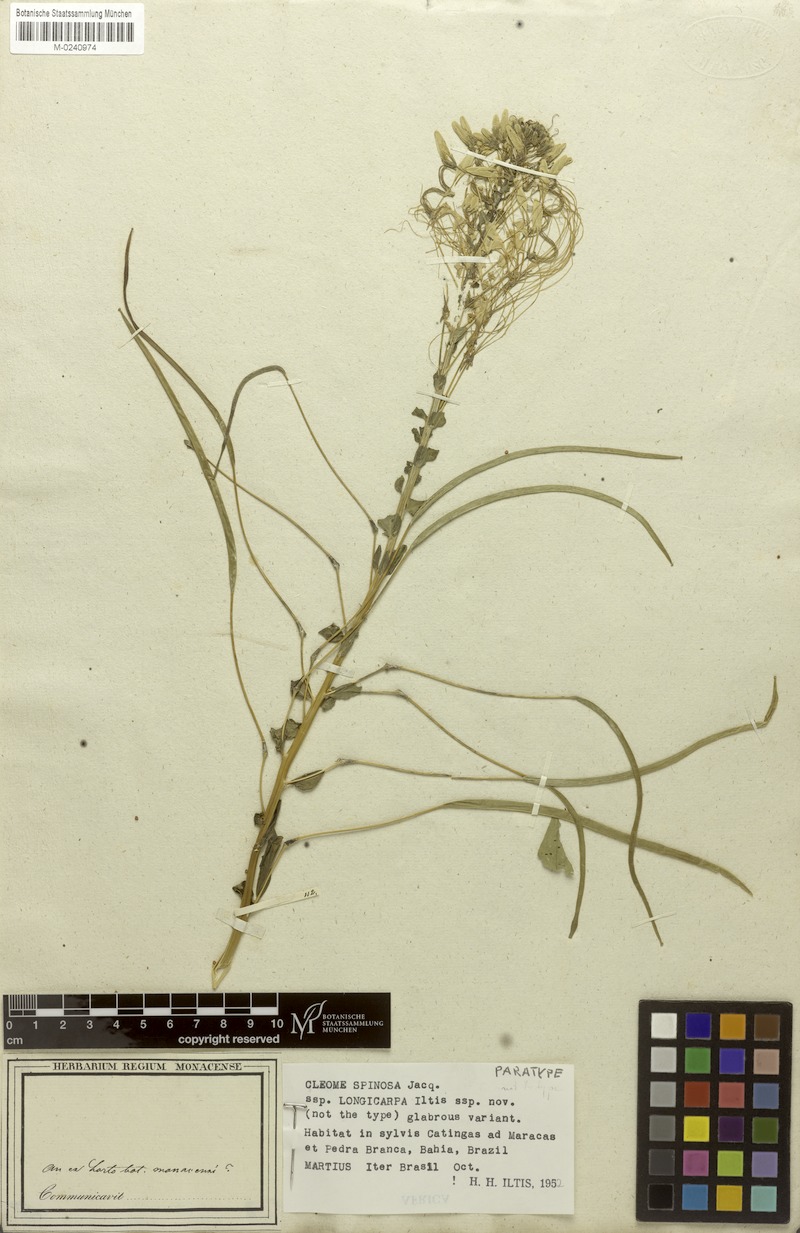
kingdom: Plantae
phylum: Tracheophyta
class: Magnoliopsida
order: Brassicales
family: Cleomaceae
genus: Tarenaya
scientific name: Tarenaya spinosa
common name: Spiny spiderflower
